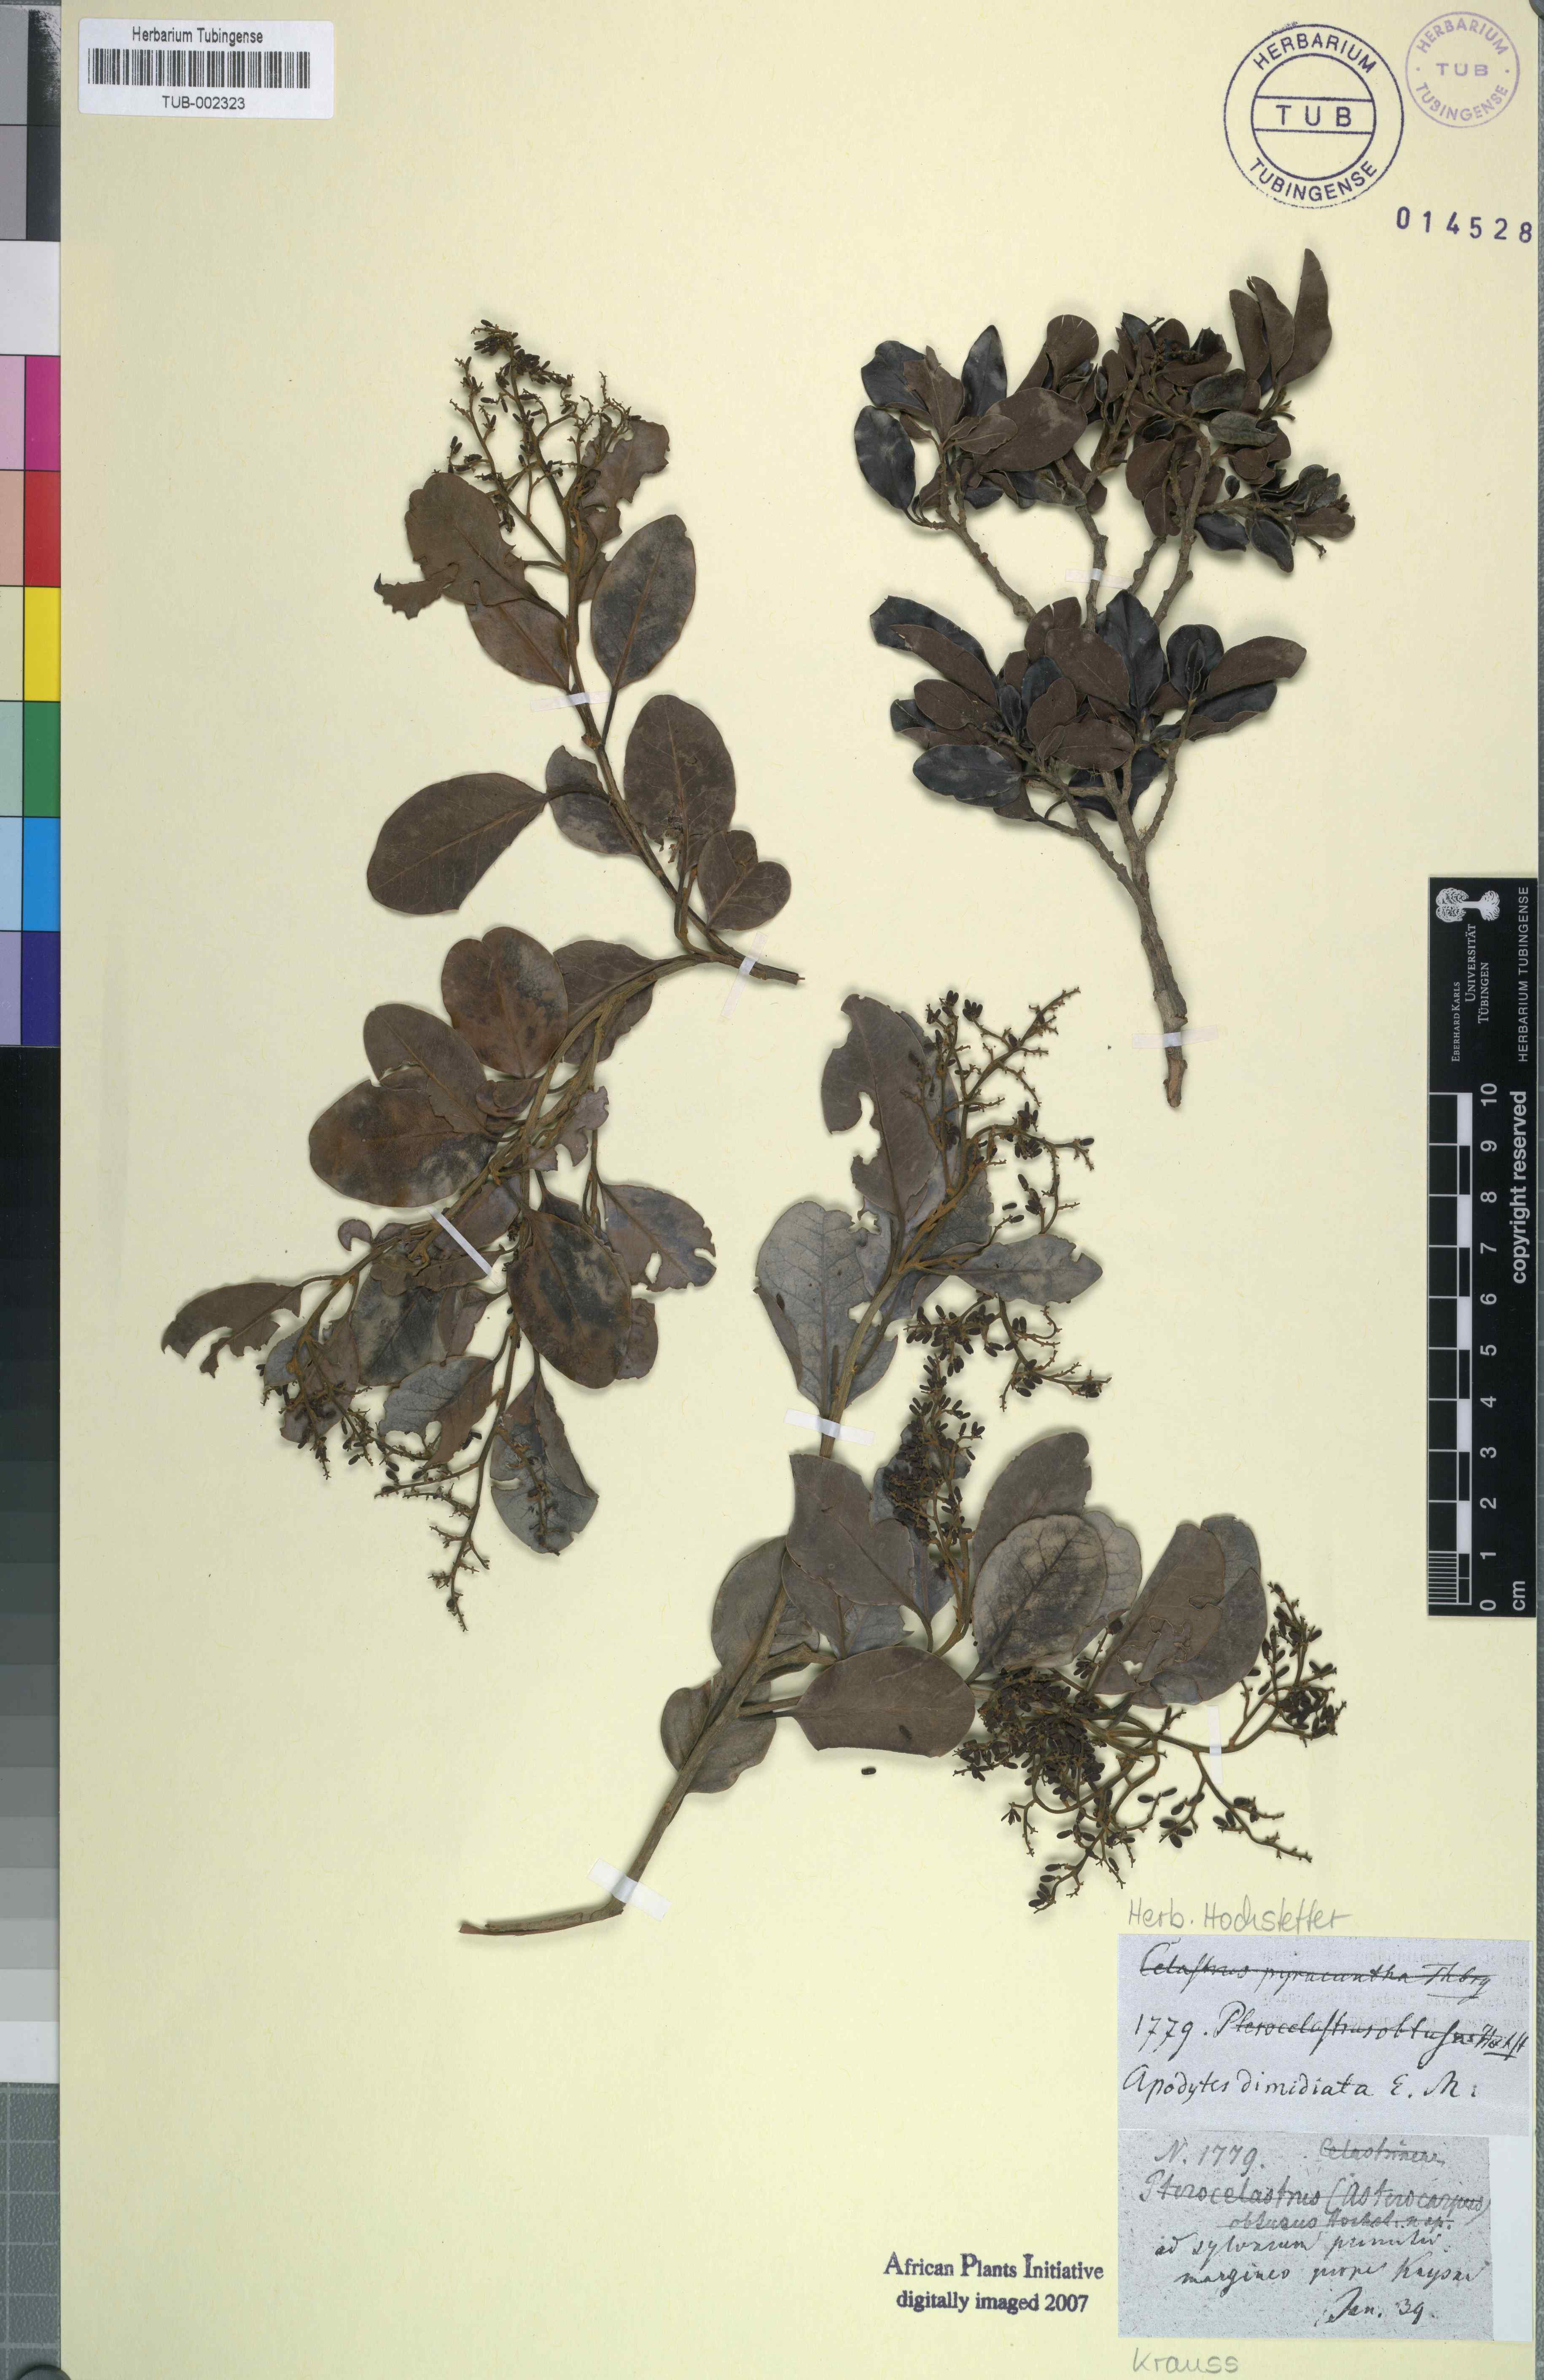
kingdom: Plantae
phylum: Tracheophyta
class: Magnoliopsida
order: Metteniusales
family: Metteniusaceae
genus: Apodytes
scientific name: Apodytes dimidiata
